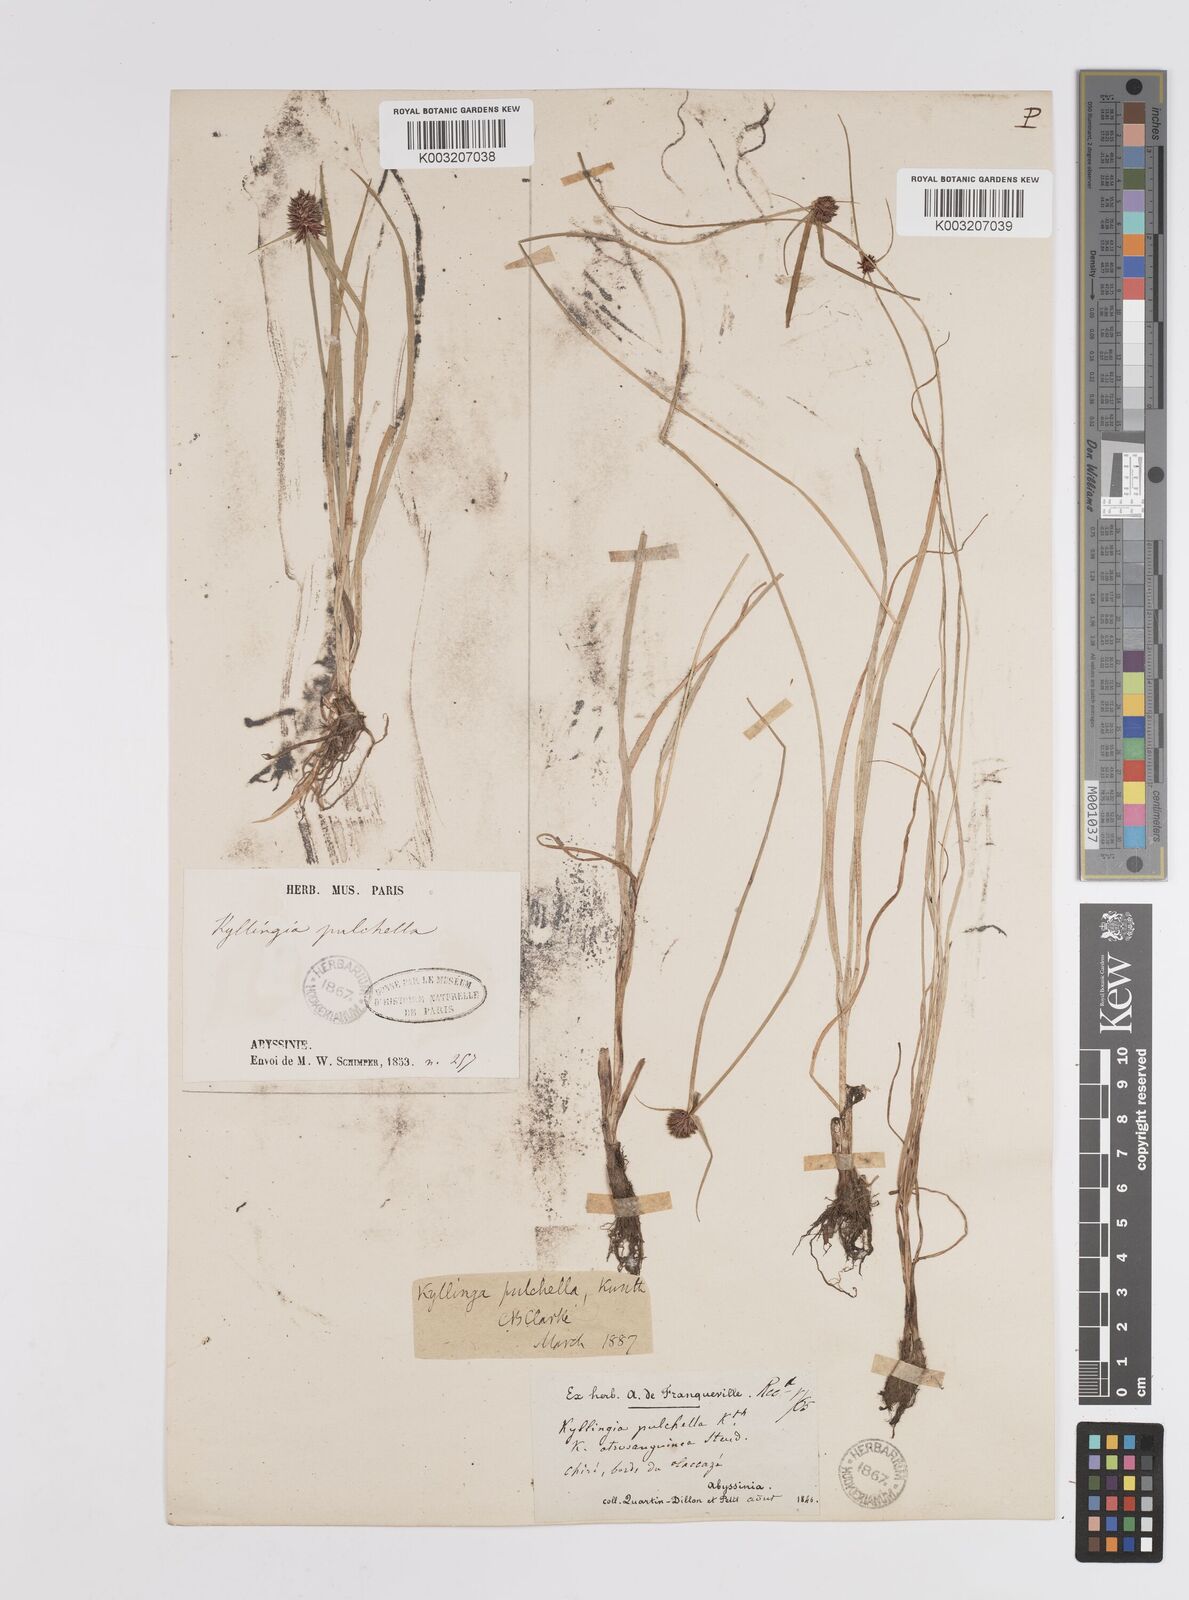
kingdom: Plantae
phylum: Tracheophyta
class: Liliopsida
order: Poales
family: Cyperaceae
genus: Cyperus
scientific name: Cyperus
